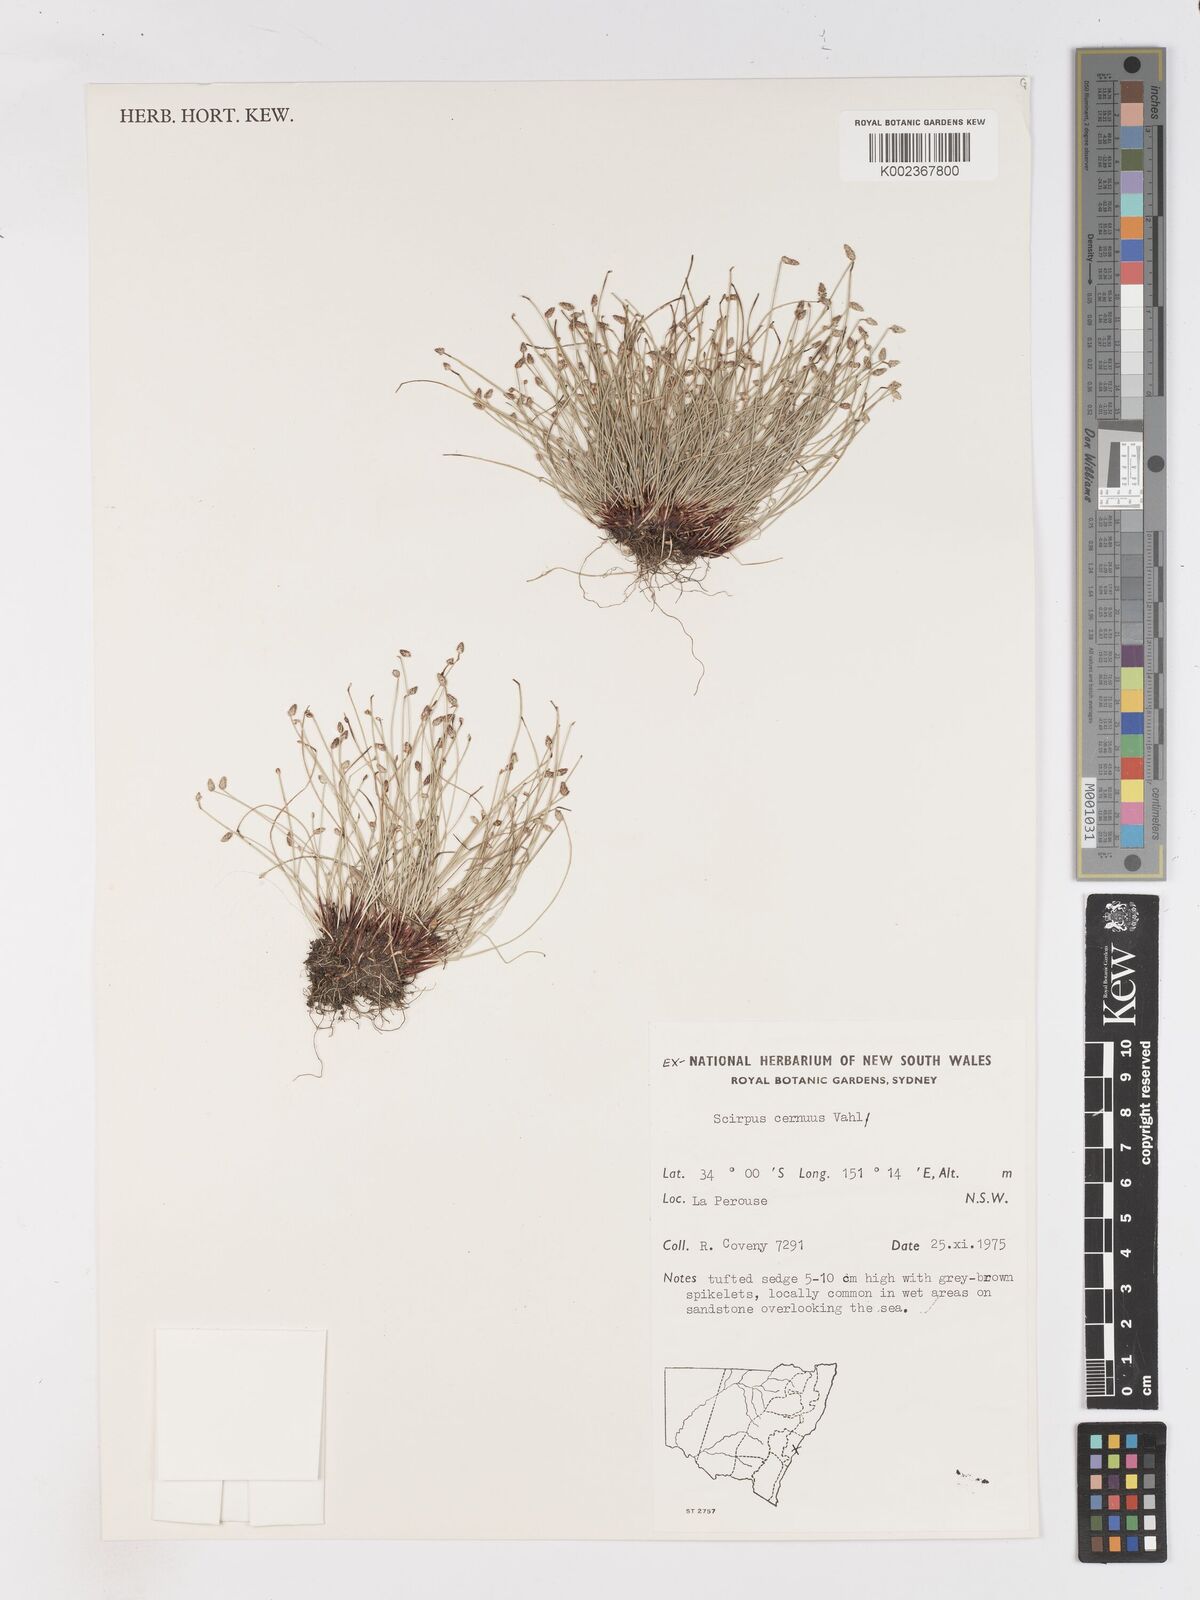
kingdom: Plantae
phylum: Tracheophyta
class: Liliopsida
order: Poales
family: Cyperaceae
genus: Isolepis
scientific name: Isolepis cernua
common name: Slender club-rush
